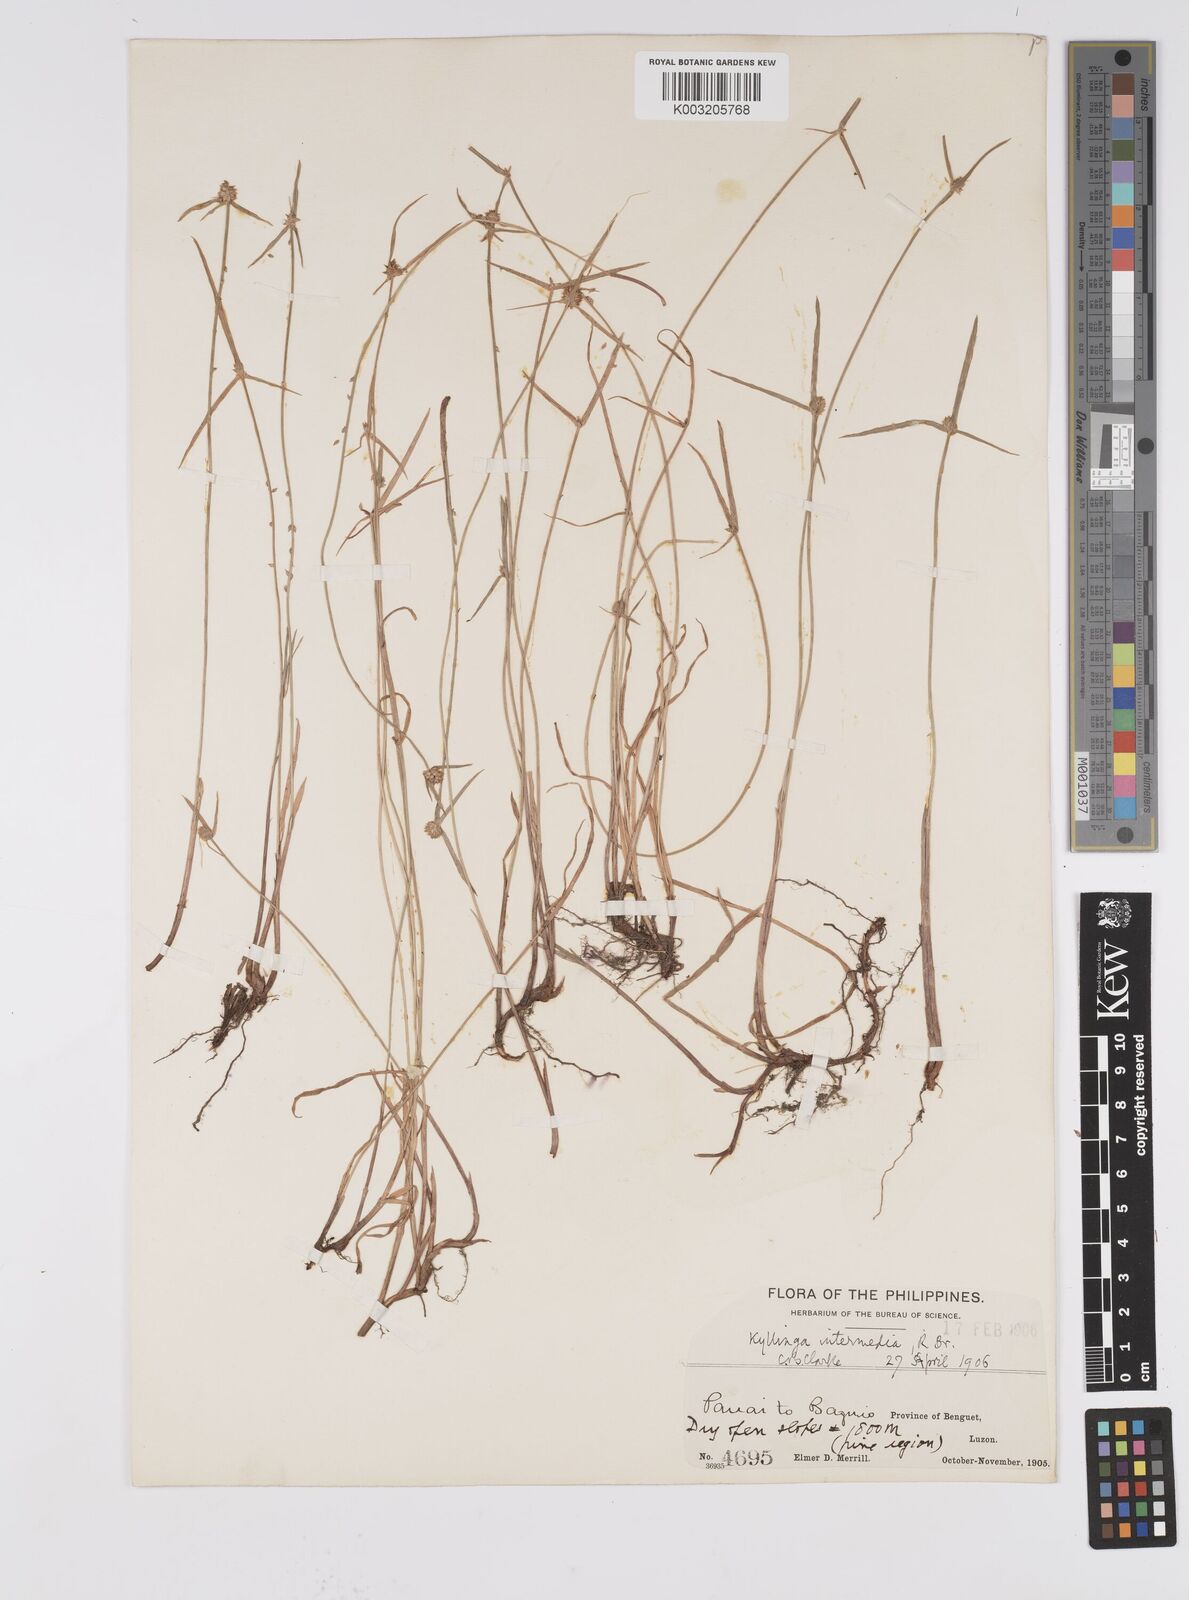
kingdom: Plantae
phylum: Tracheophyta
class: Liliopsida
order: Poales
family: Cyperaceae
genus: Cyperus
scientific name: Cyperus brevifolius
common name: Globe kyllinga
